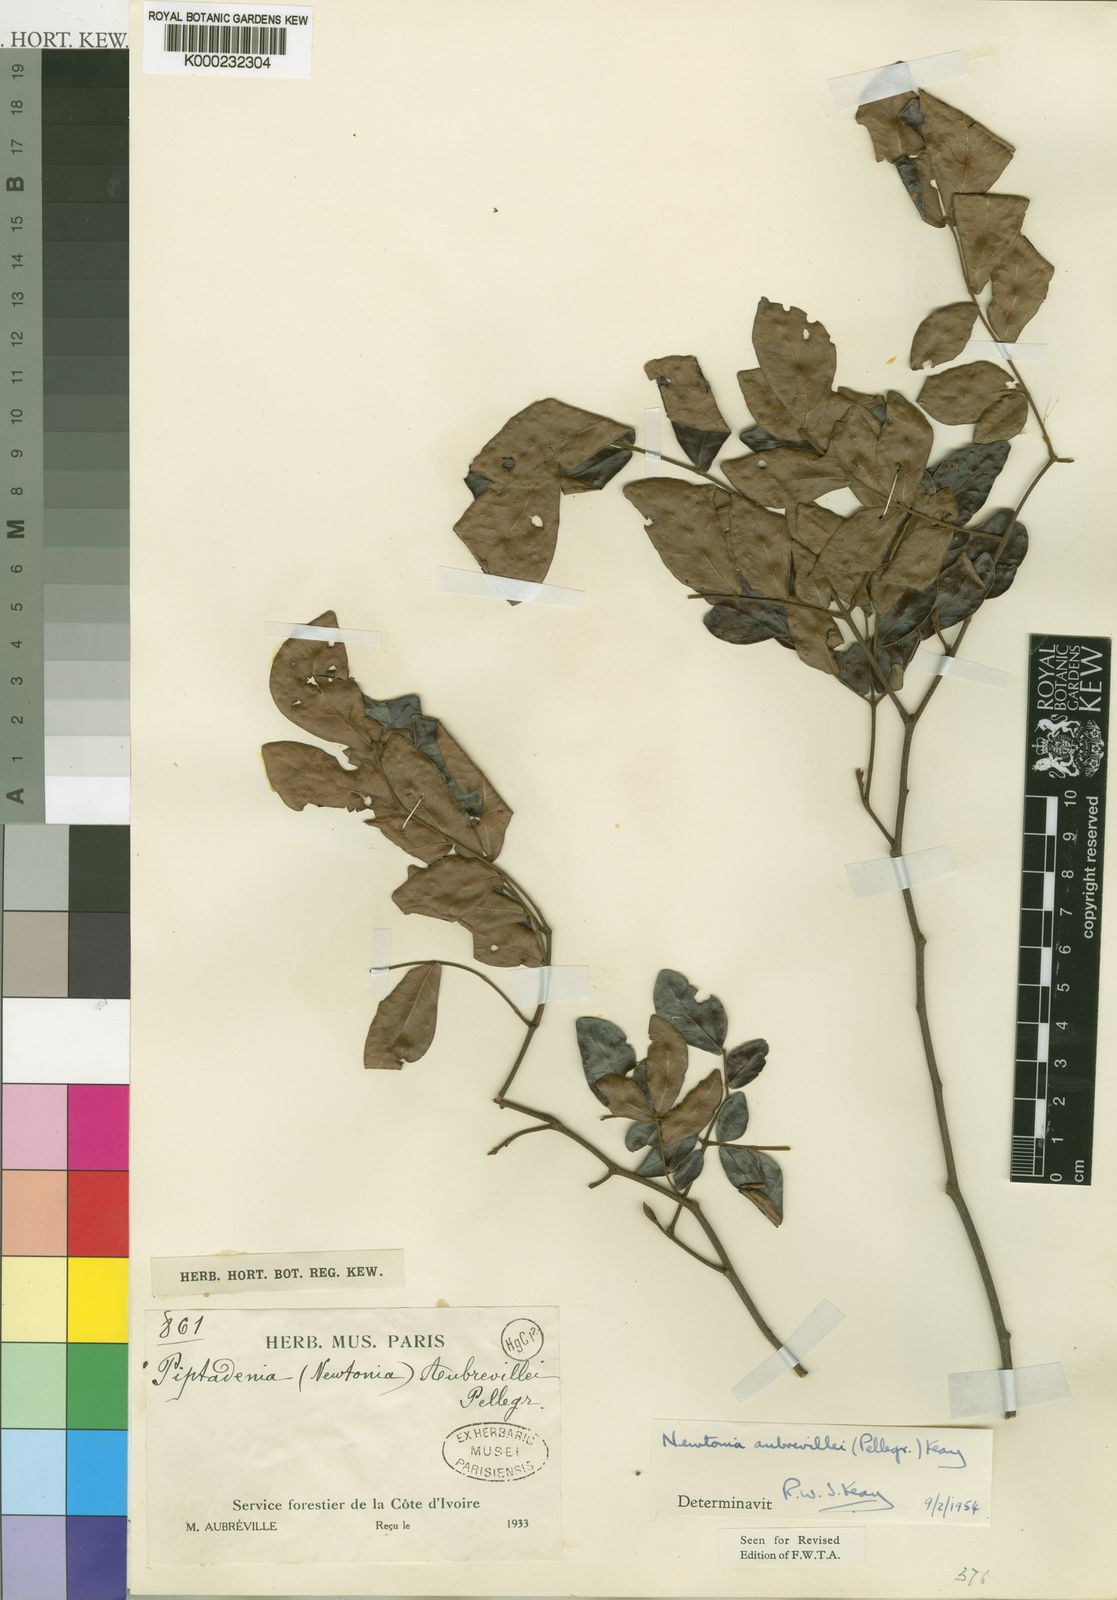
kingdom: Plantae
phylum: Tracheophyta
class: Magnoliopsida
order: Fabales
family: Fabaceae
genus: Newtonia
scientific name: Newtonia aubrevillei
